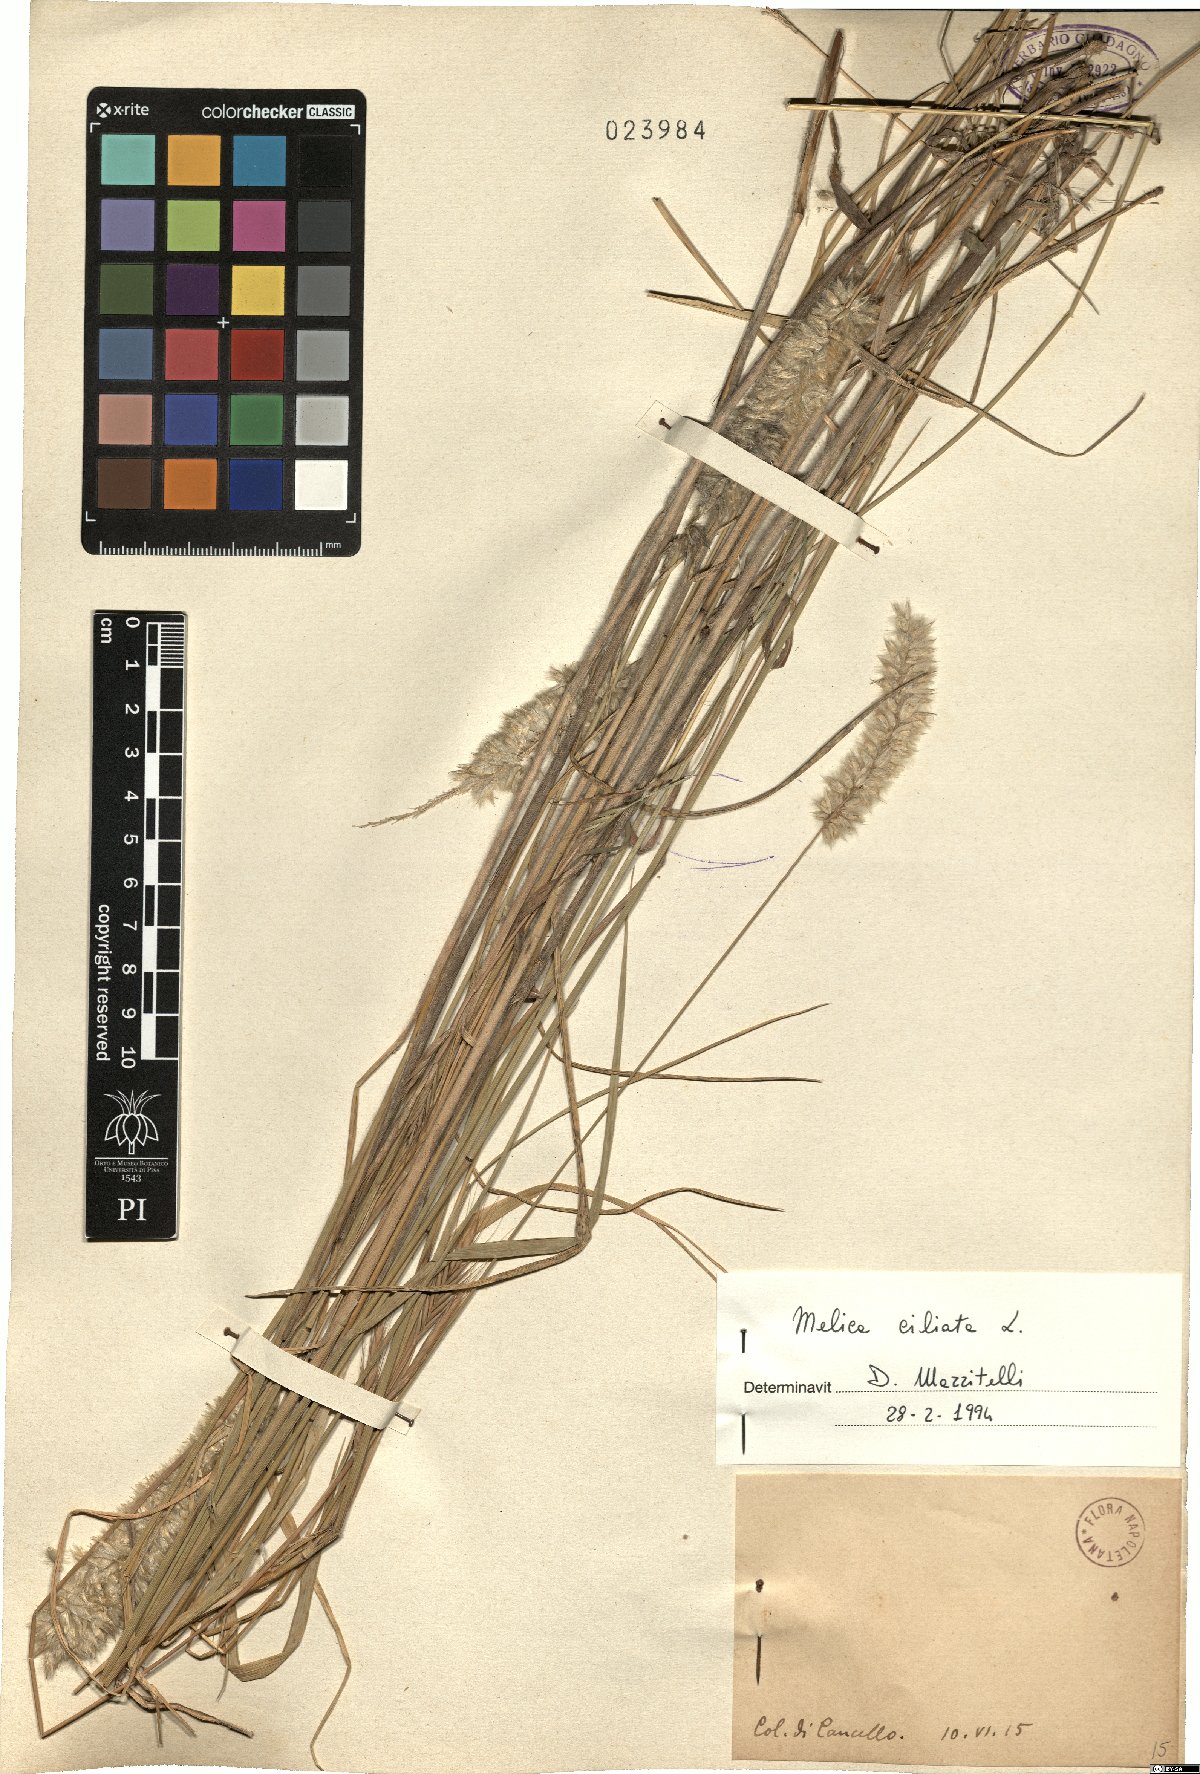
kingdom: Plantae
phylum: Tracheophyta
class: Liliopsida
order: Poales
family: Poaceae
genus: Melica
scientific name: Melica ciliata
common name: Hairy melicgrass
